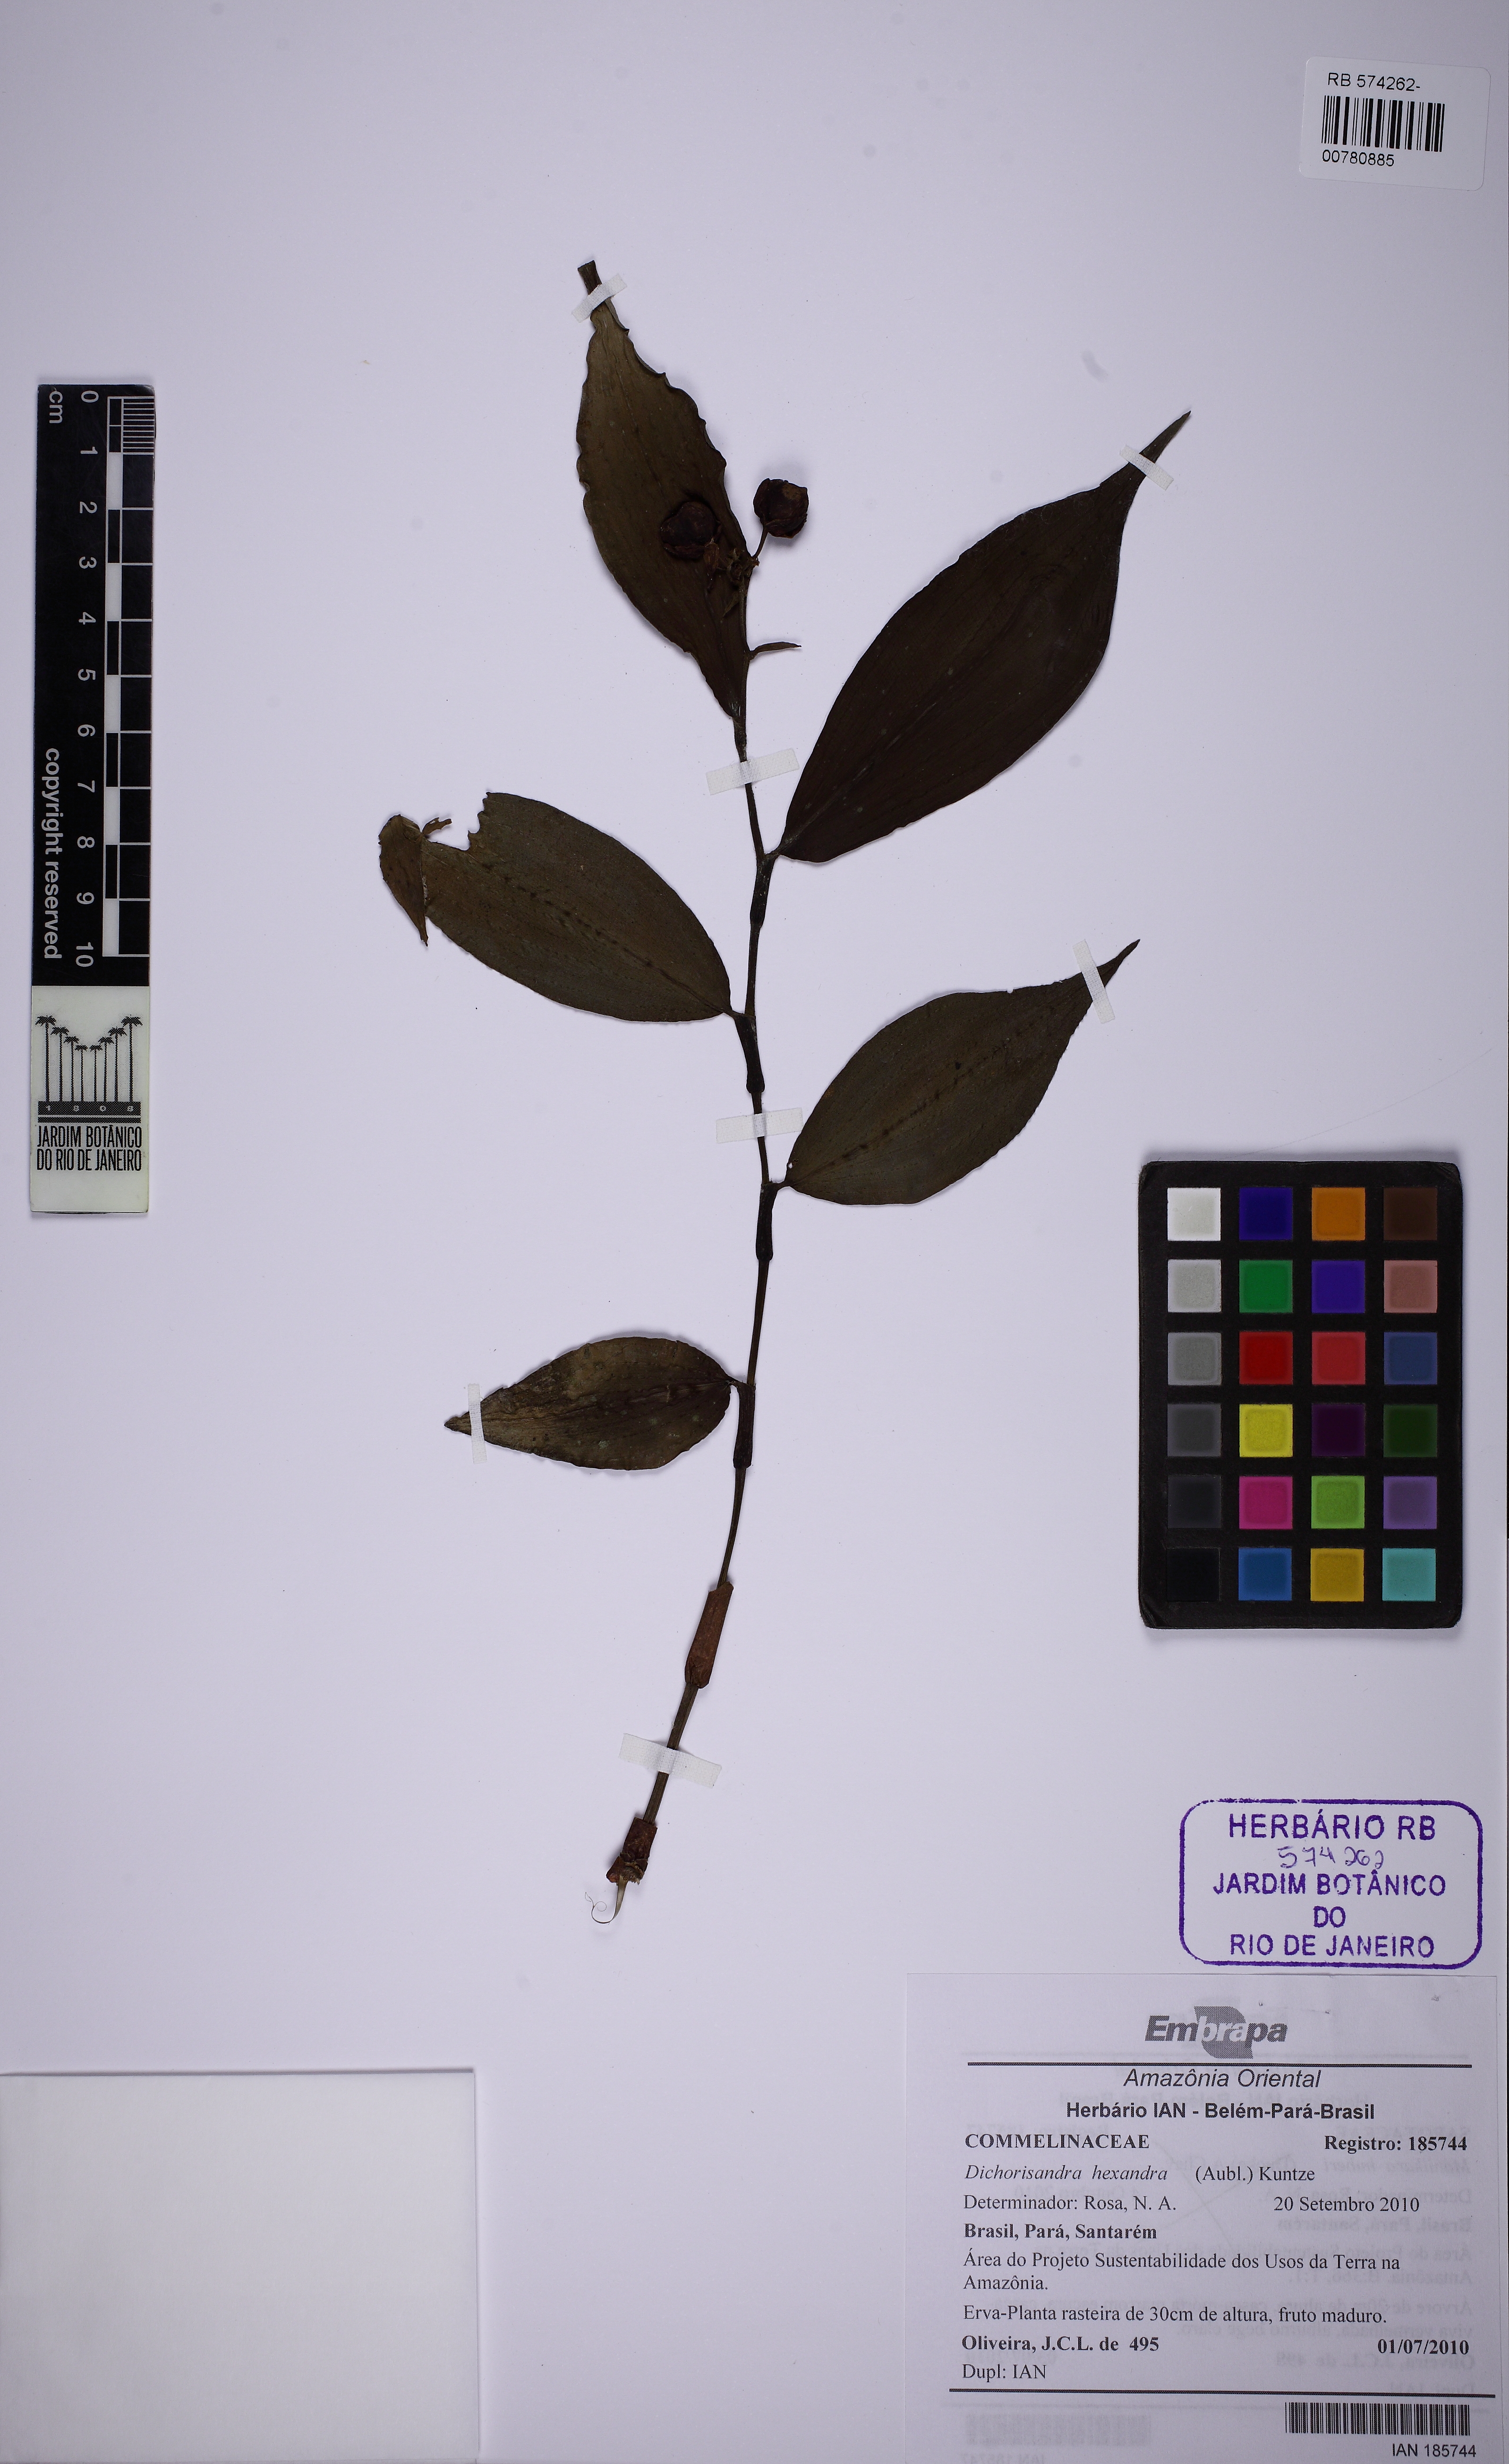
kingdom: Plantae
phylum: Tracheophyta
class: Liliopsida
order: Commelinales
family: Commelinaceae
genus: Dichorisandra
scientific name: Dichorisandra hexandra
